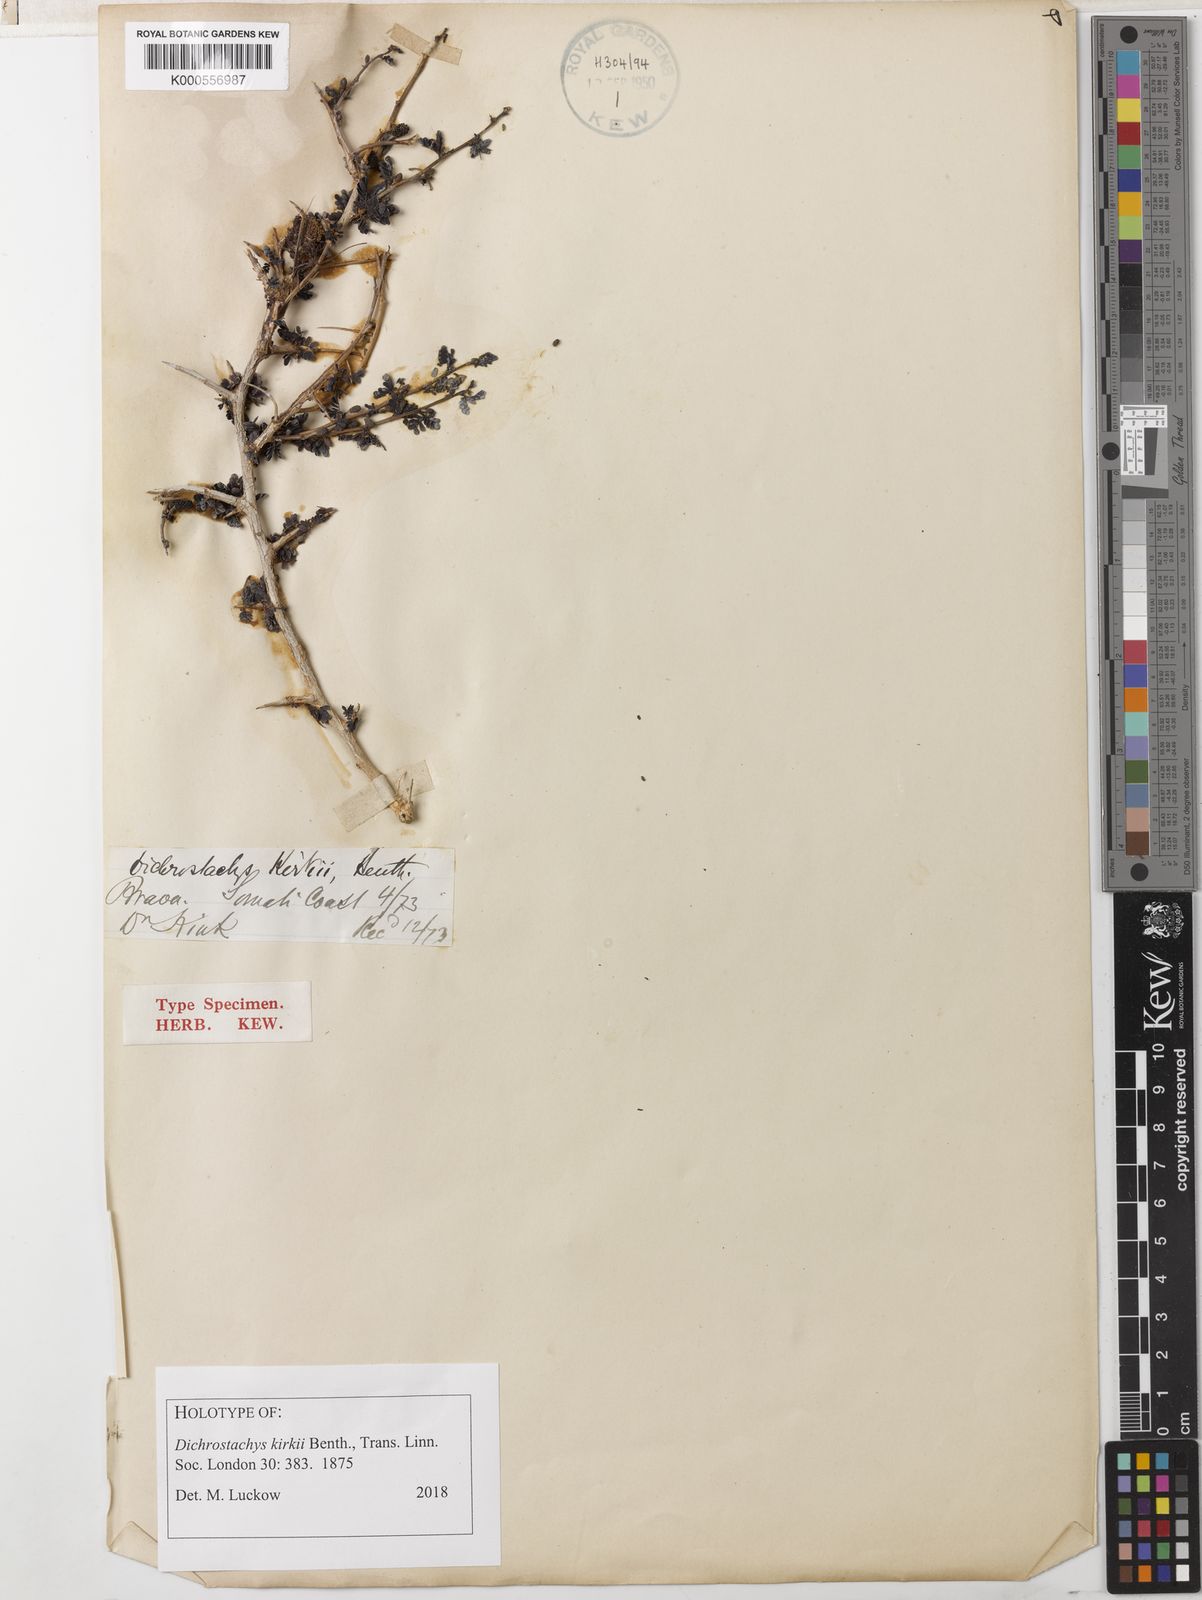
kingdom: Plantae
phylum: Tracheophyta
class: Magnoliopsida
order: Fabales
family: Fabaceae
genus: Dichrostachys
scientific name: Dichrostachys kirkii
